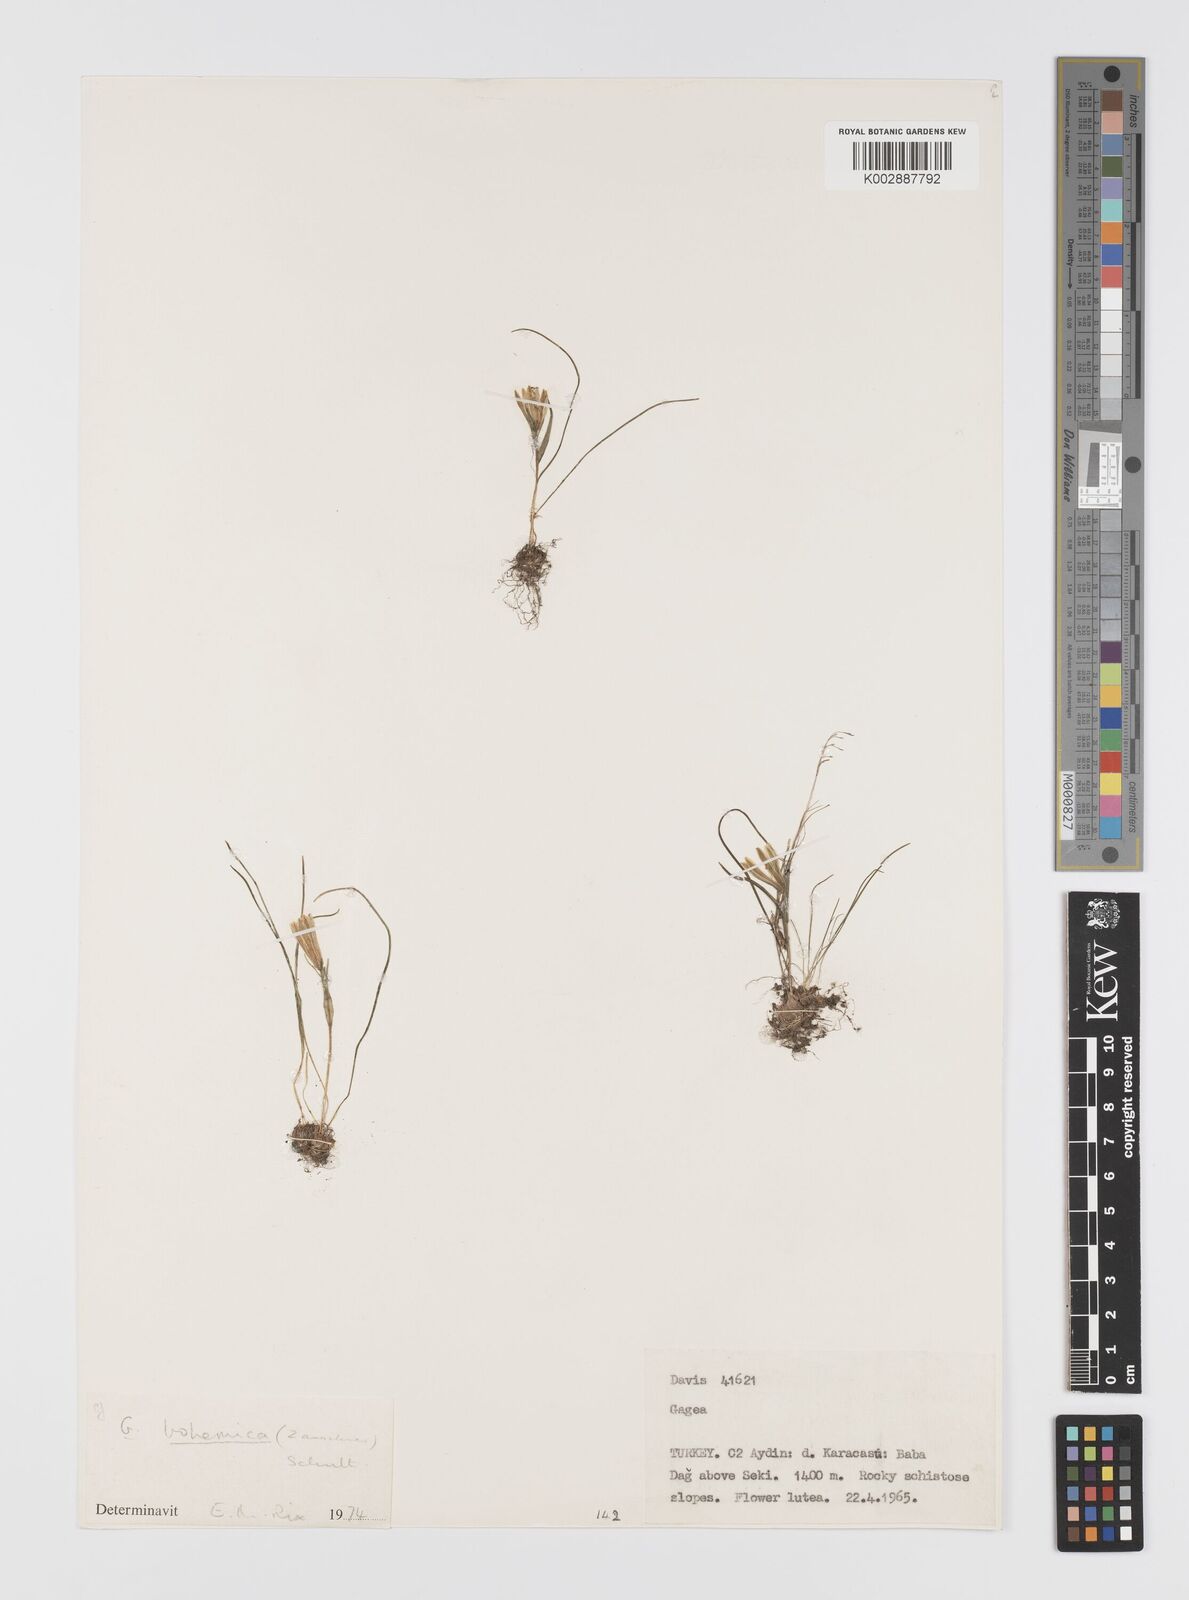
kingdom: Plantae
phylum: Tracheophyta
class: Liliopsida
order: Liliales
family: Liliaceae
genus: Gagea
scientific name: Gagea bohemica
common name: Early star-of-bethlehem
